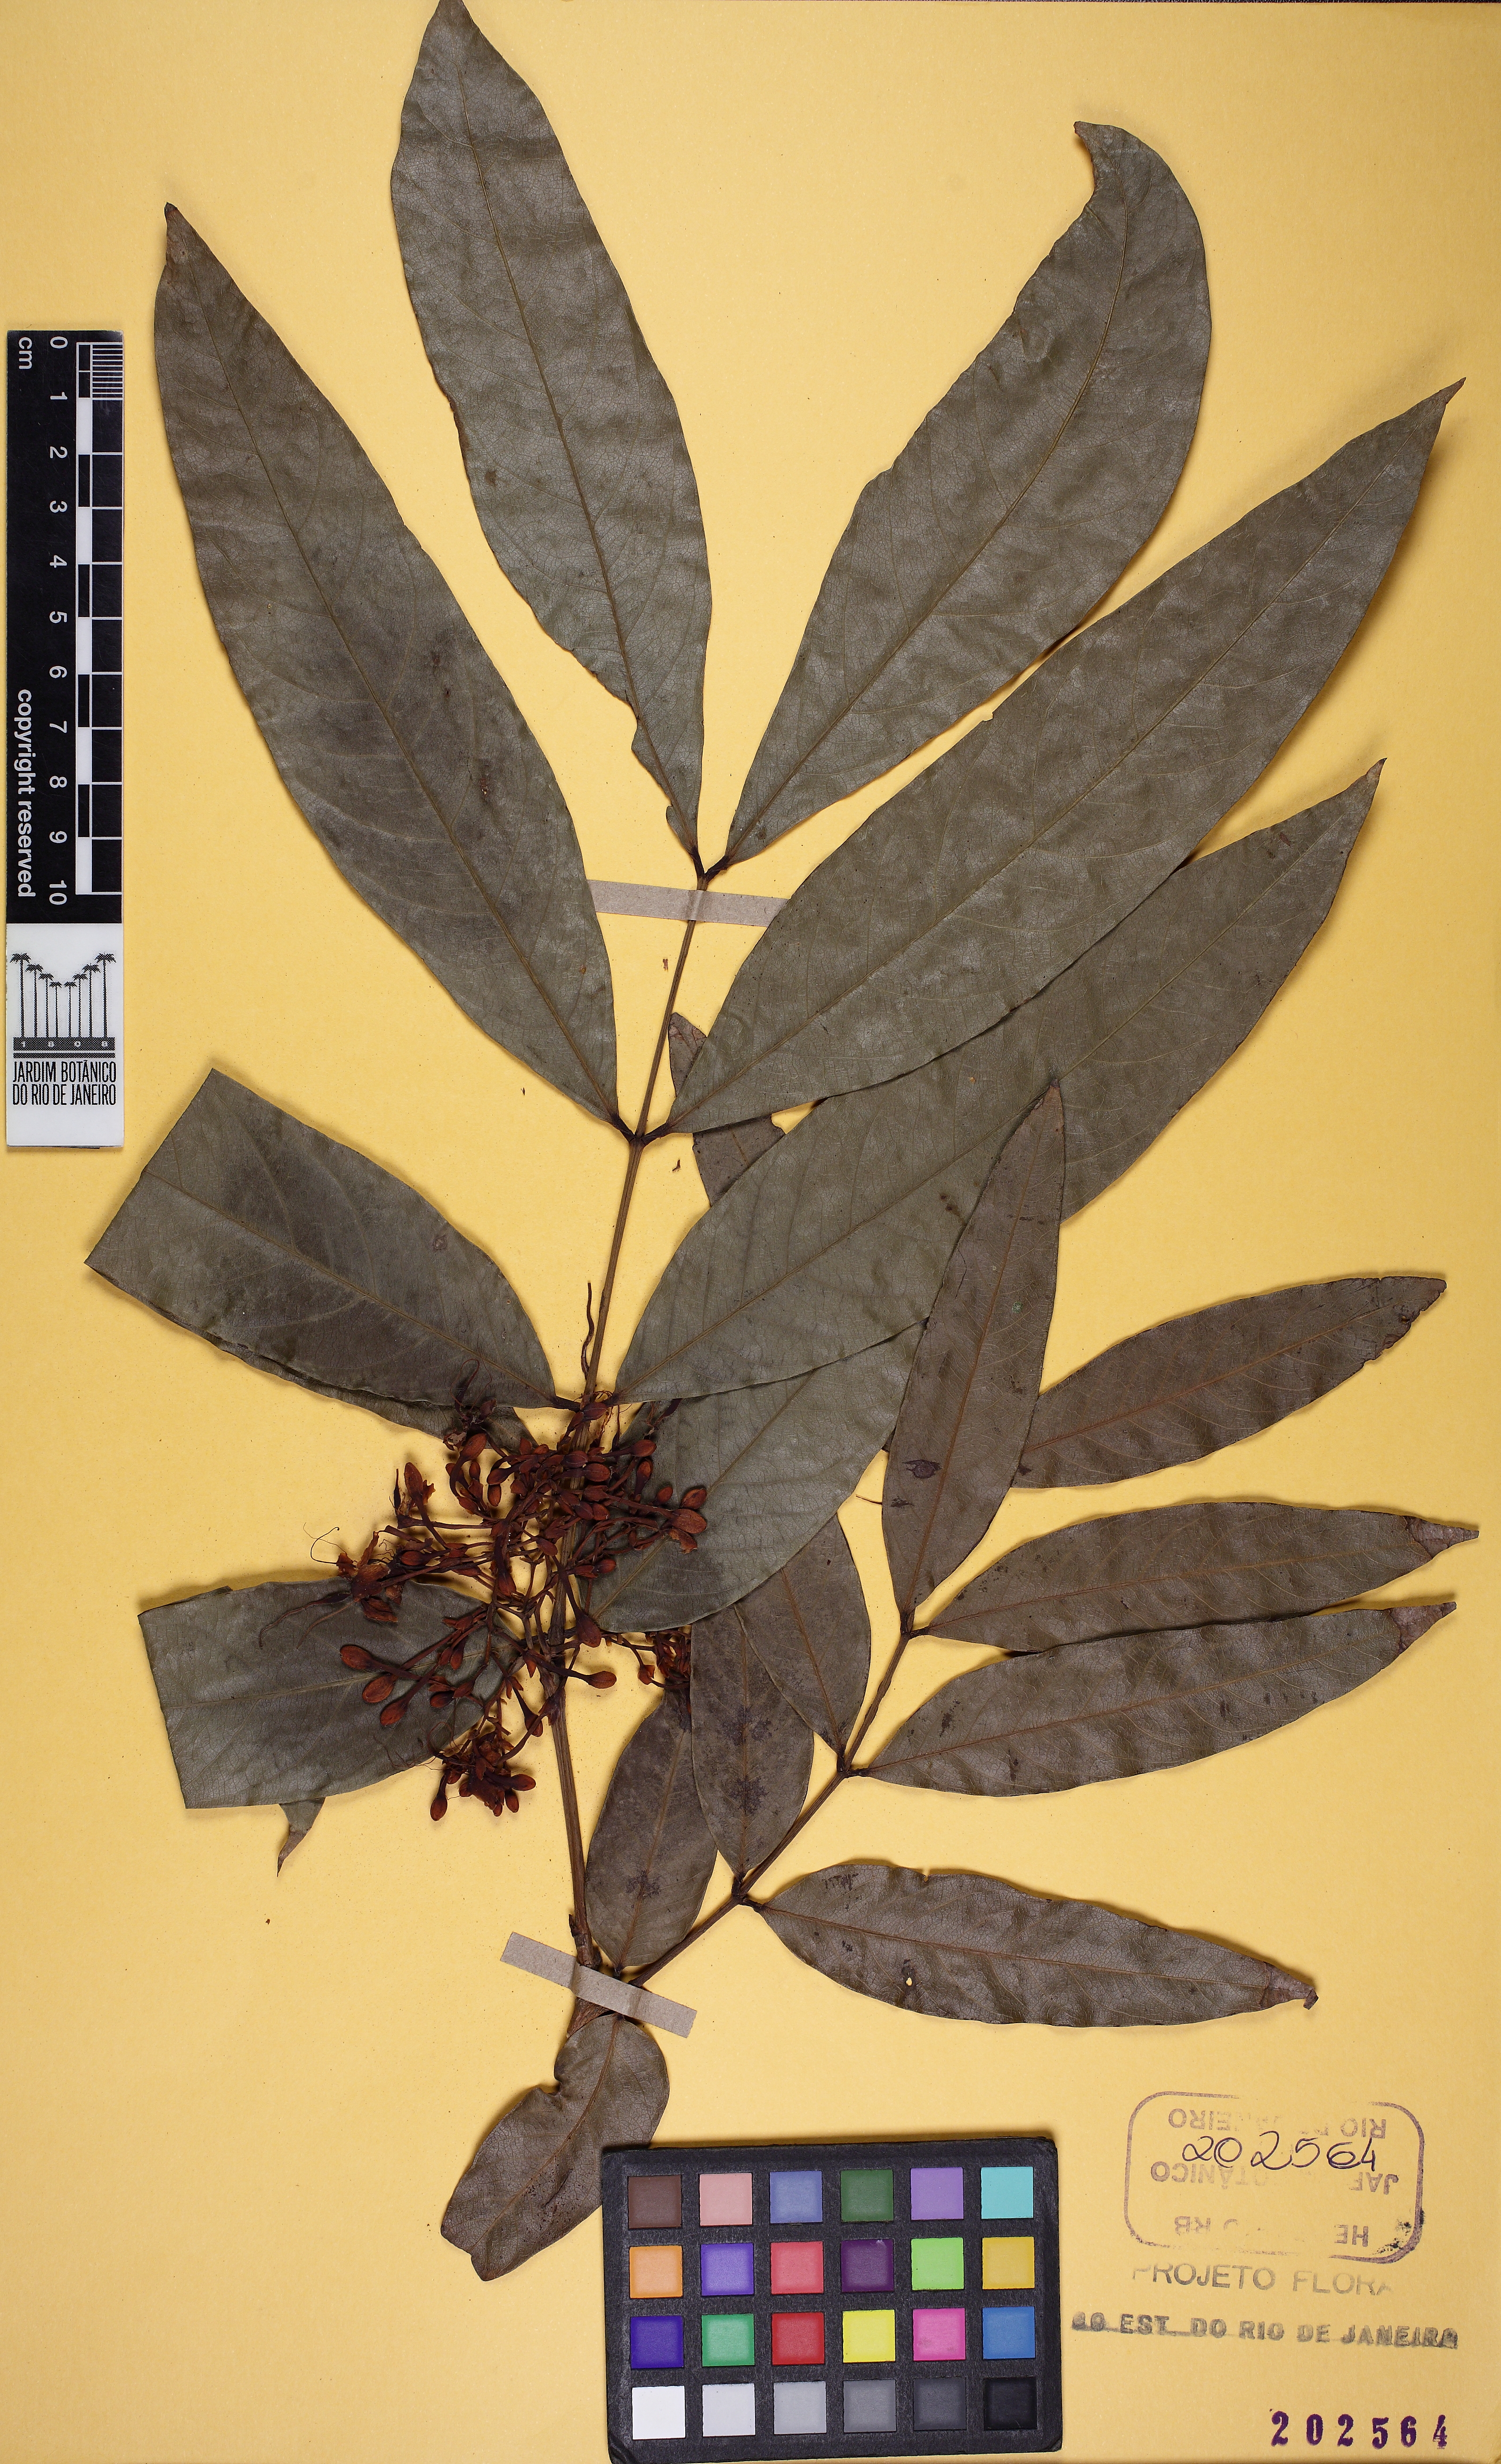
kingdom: Plantae
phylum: Tracheophyta
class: Magnoliopsida
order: Fabales
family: Fabaceae
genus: Saraca
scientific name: Saraca indica
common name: Asoka-tree
